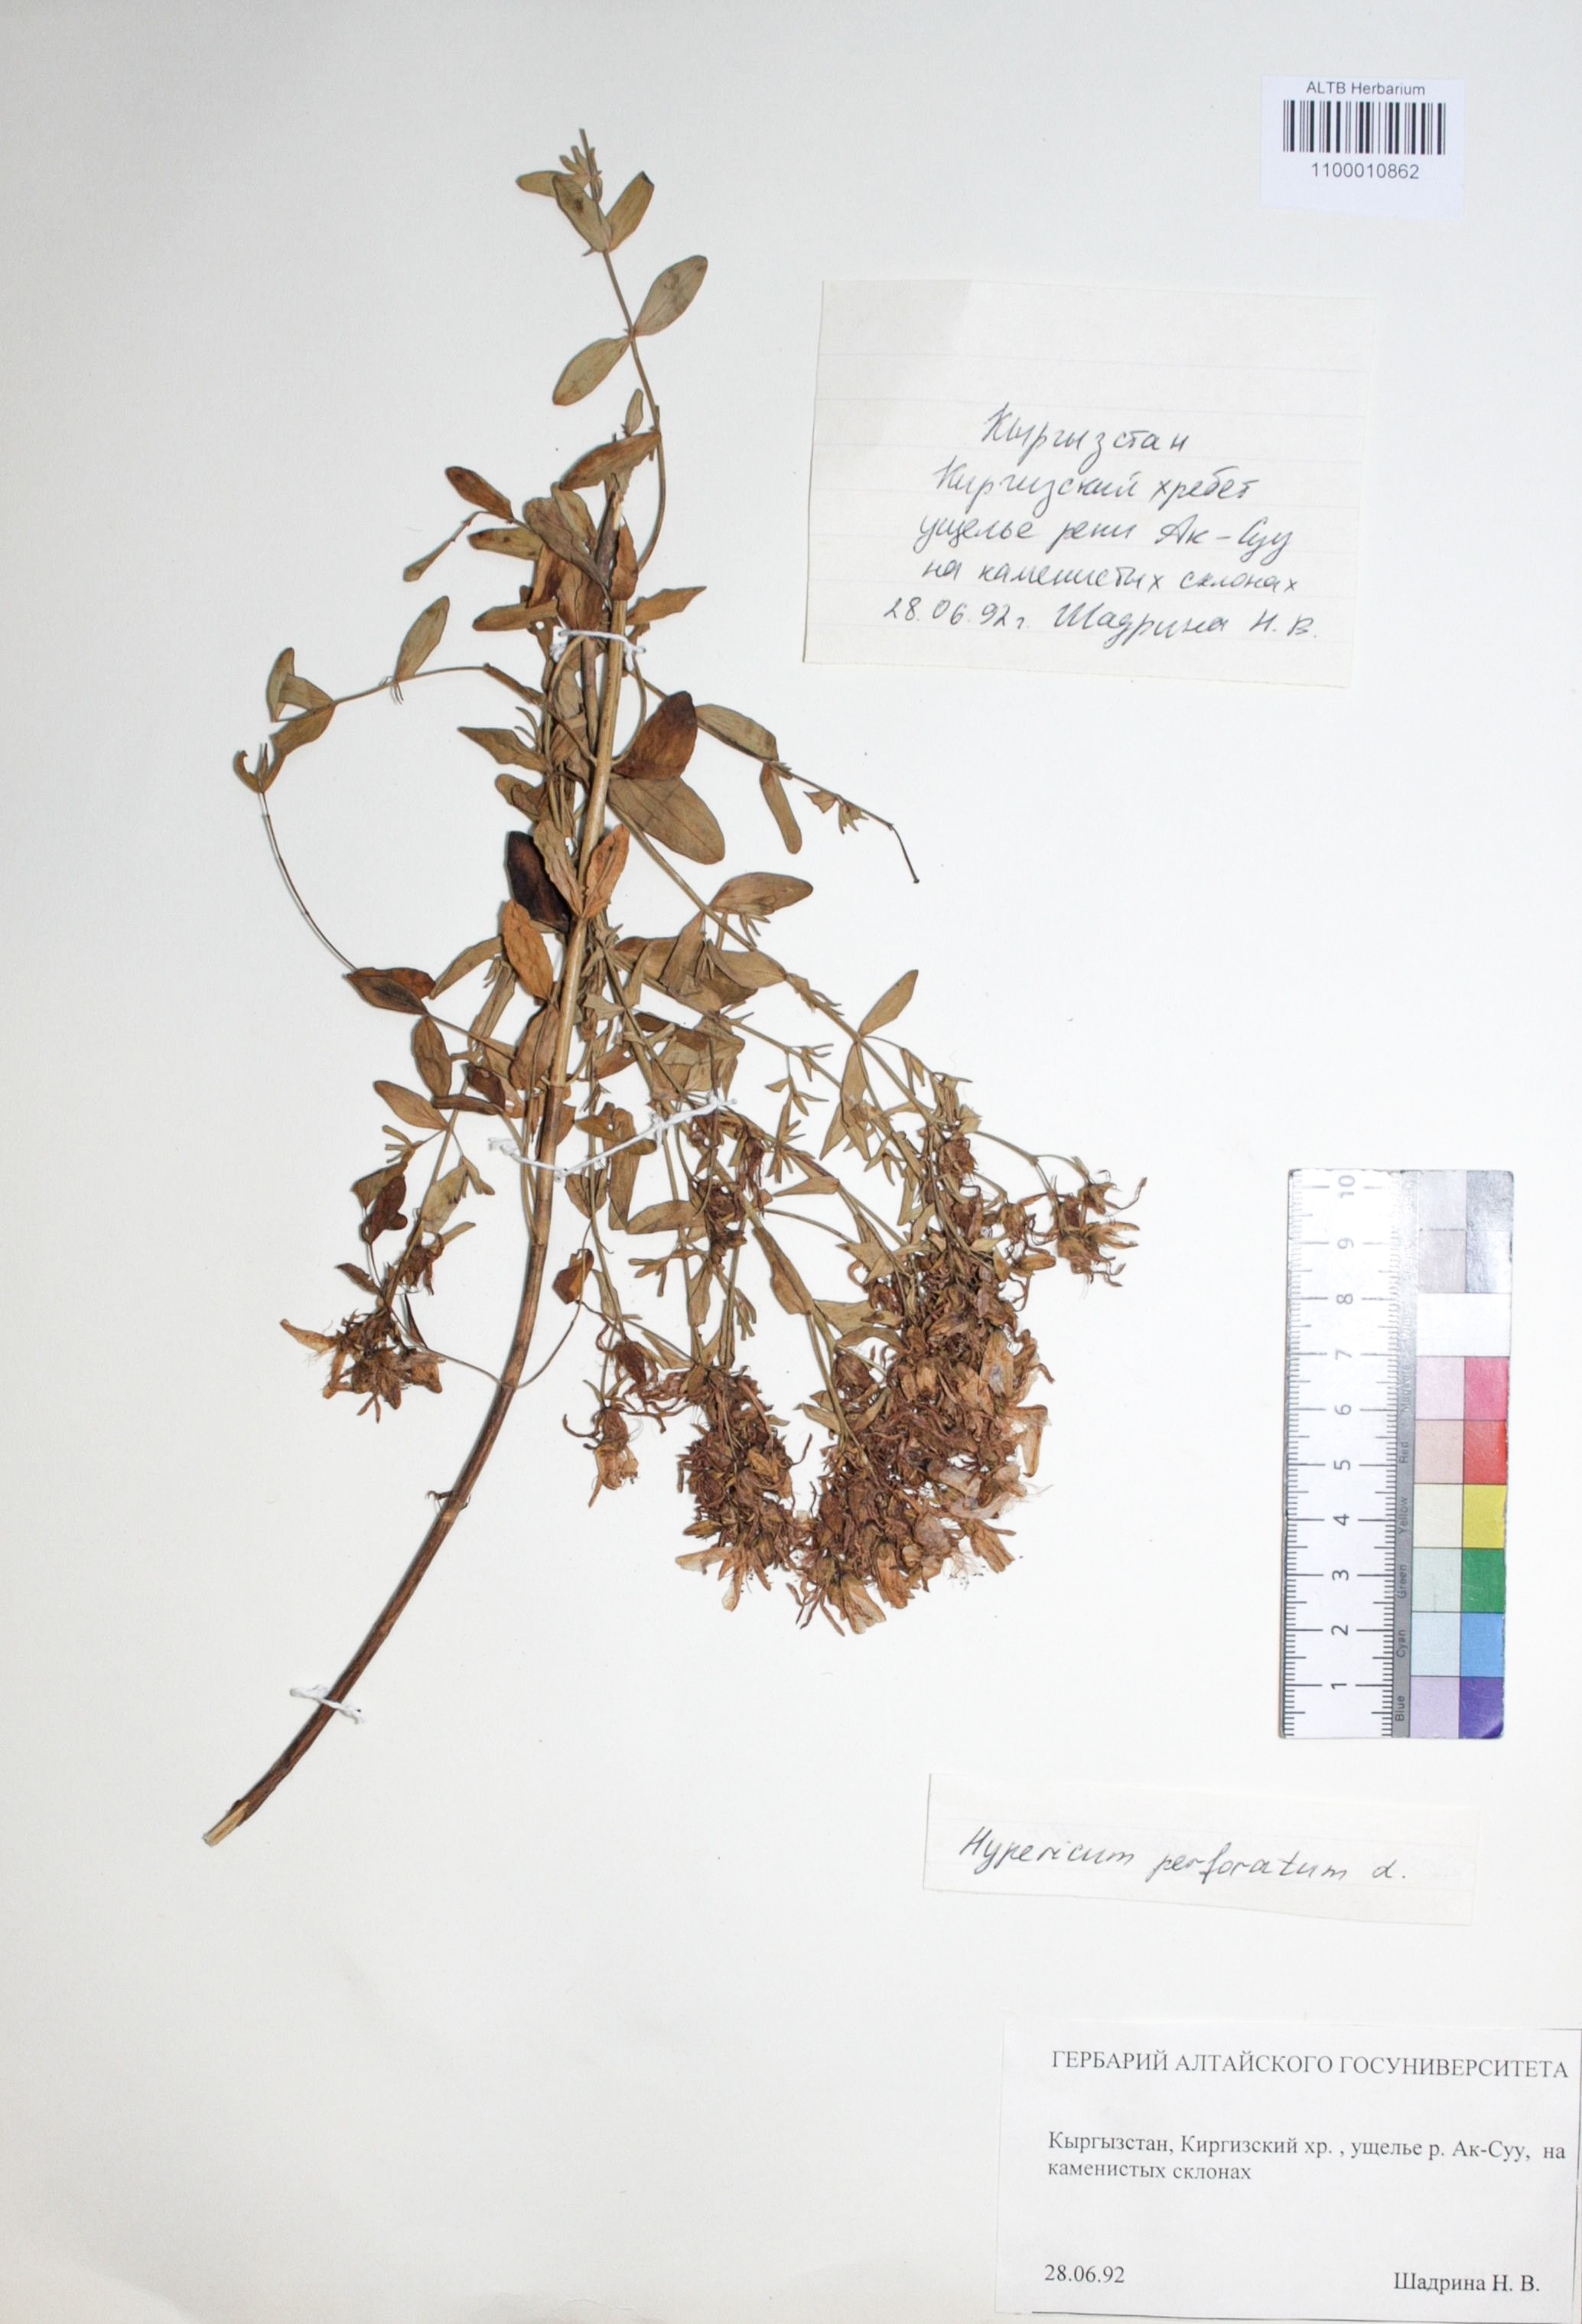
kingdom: Plantae
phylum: Tracheophyta
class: Magnoliopsida
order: Malpighiales
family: Hypericaceae
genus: Hypericum
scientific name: Hypericum perforatum
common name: Common st. johnswort
